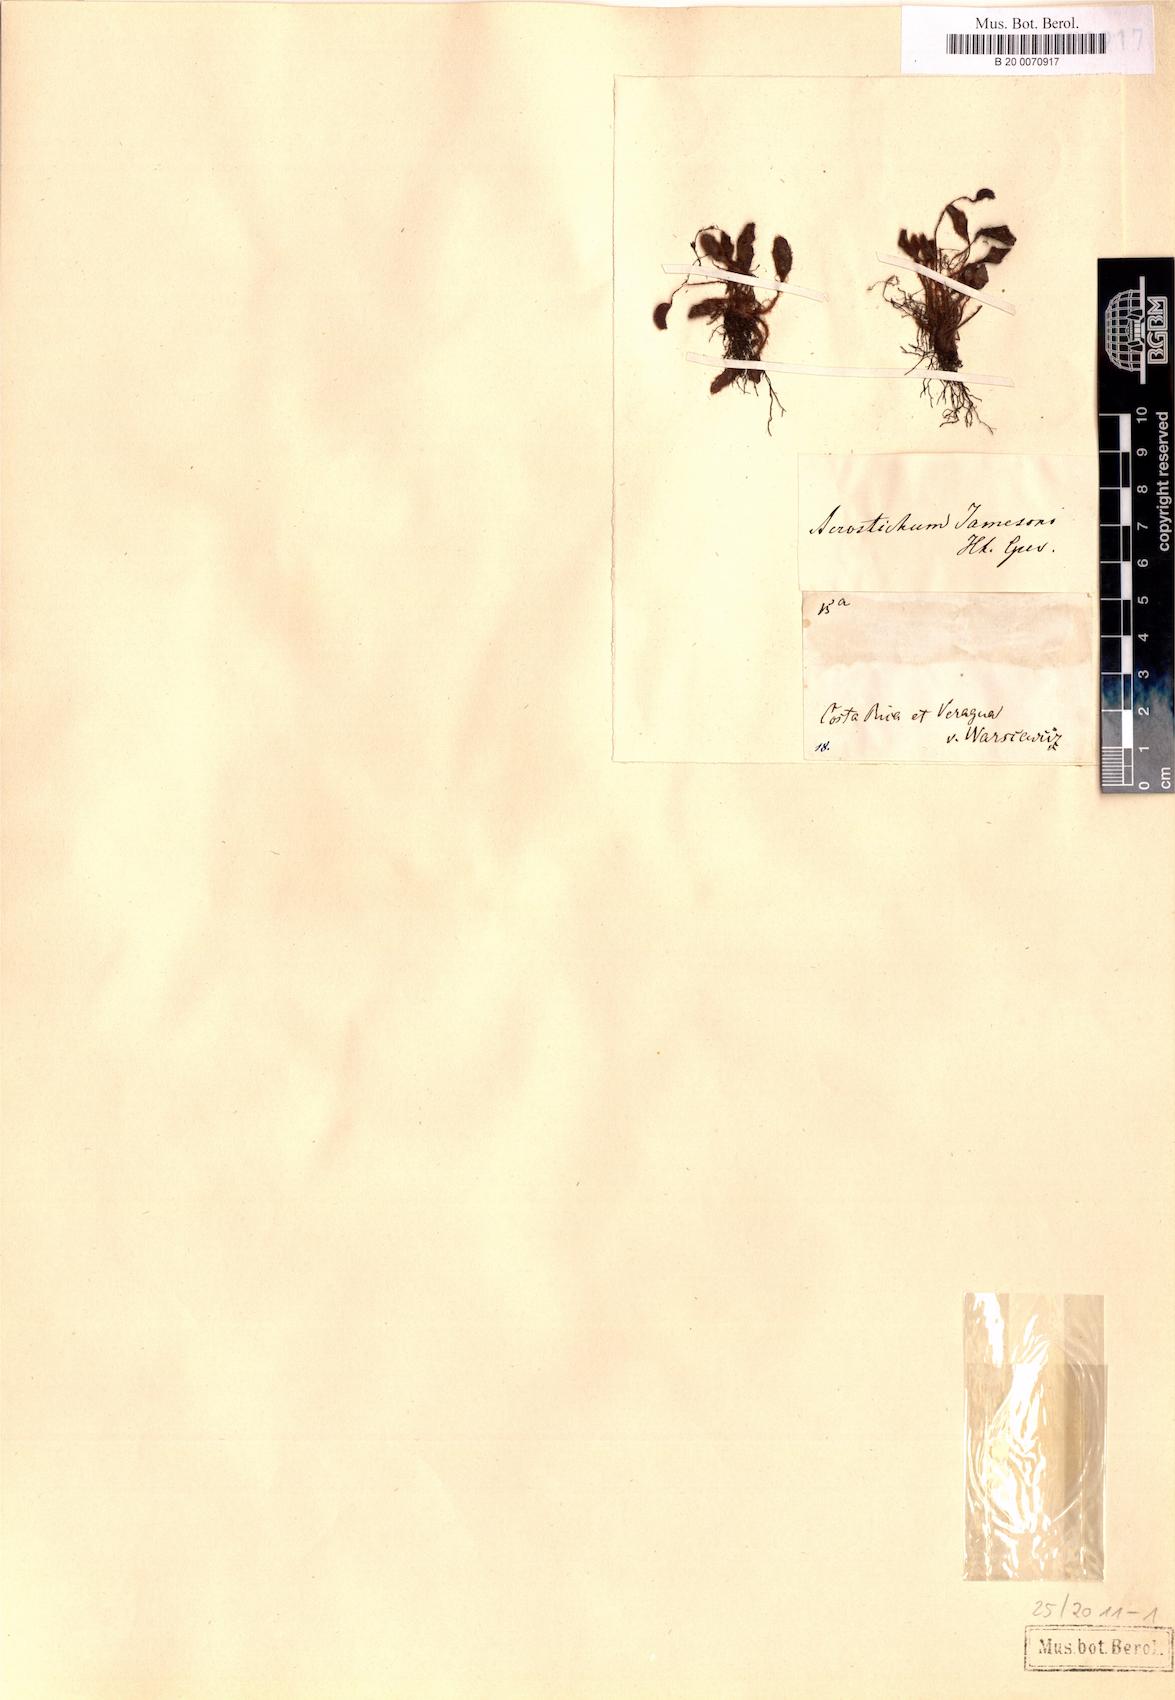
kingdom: Plantae
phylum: Tracheophyta
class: Polypodiopsida
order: Polypodiales
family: Dryopteridaceae
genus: Elaphoglossum
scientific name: Elaphoglossum piloselloides
